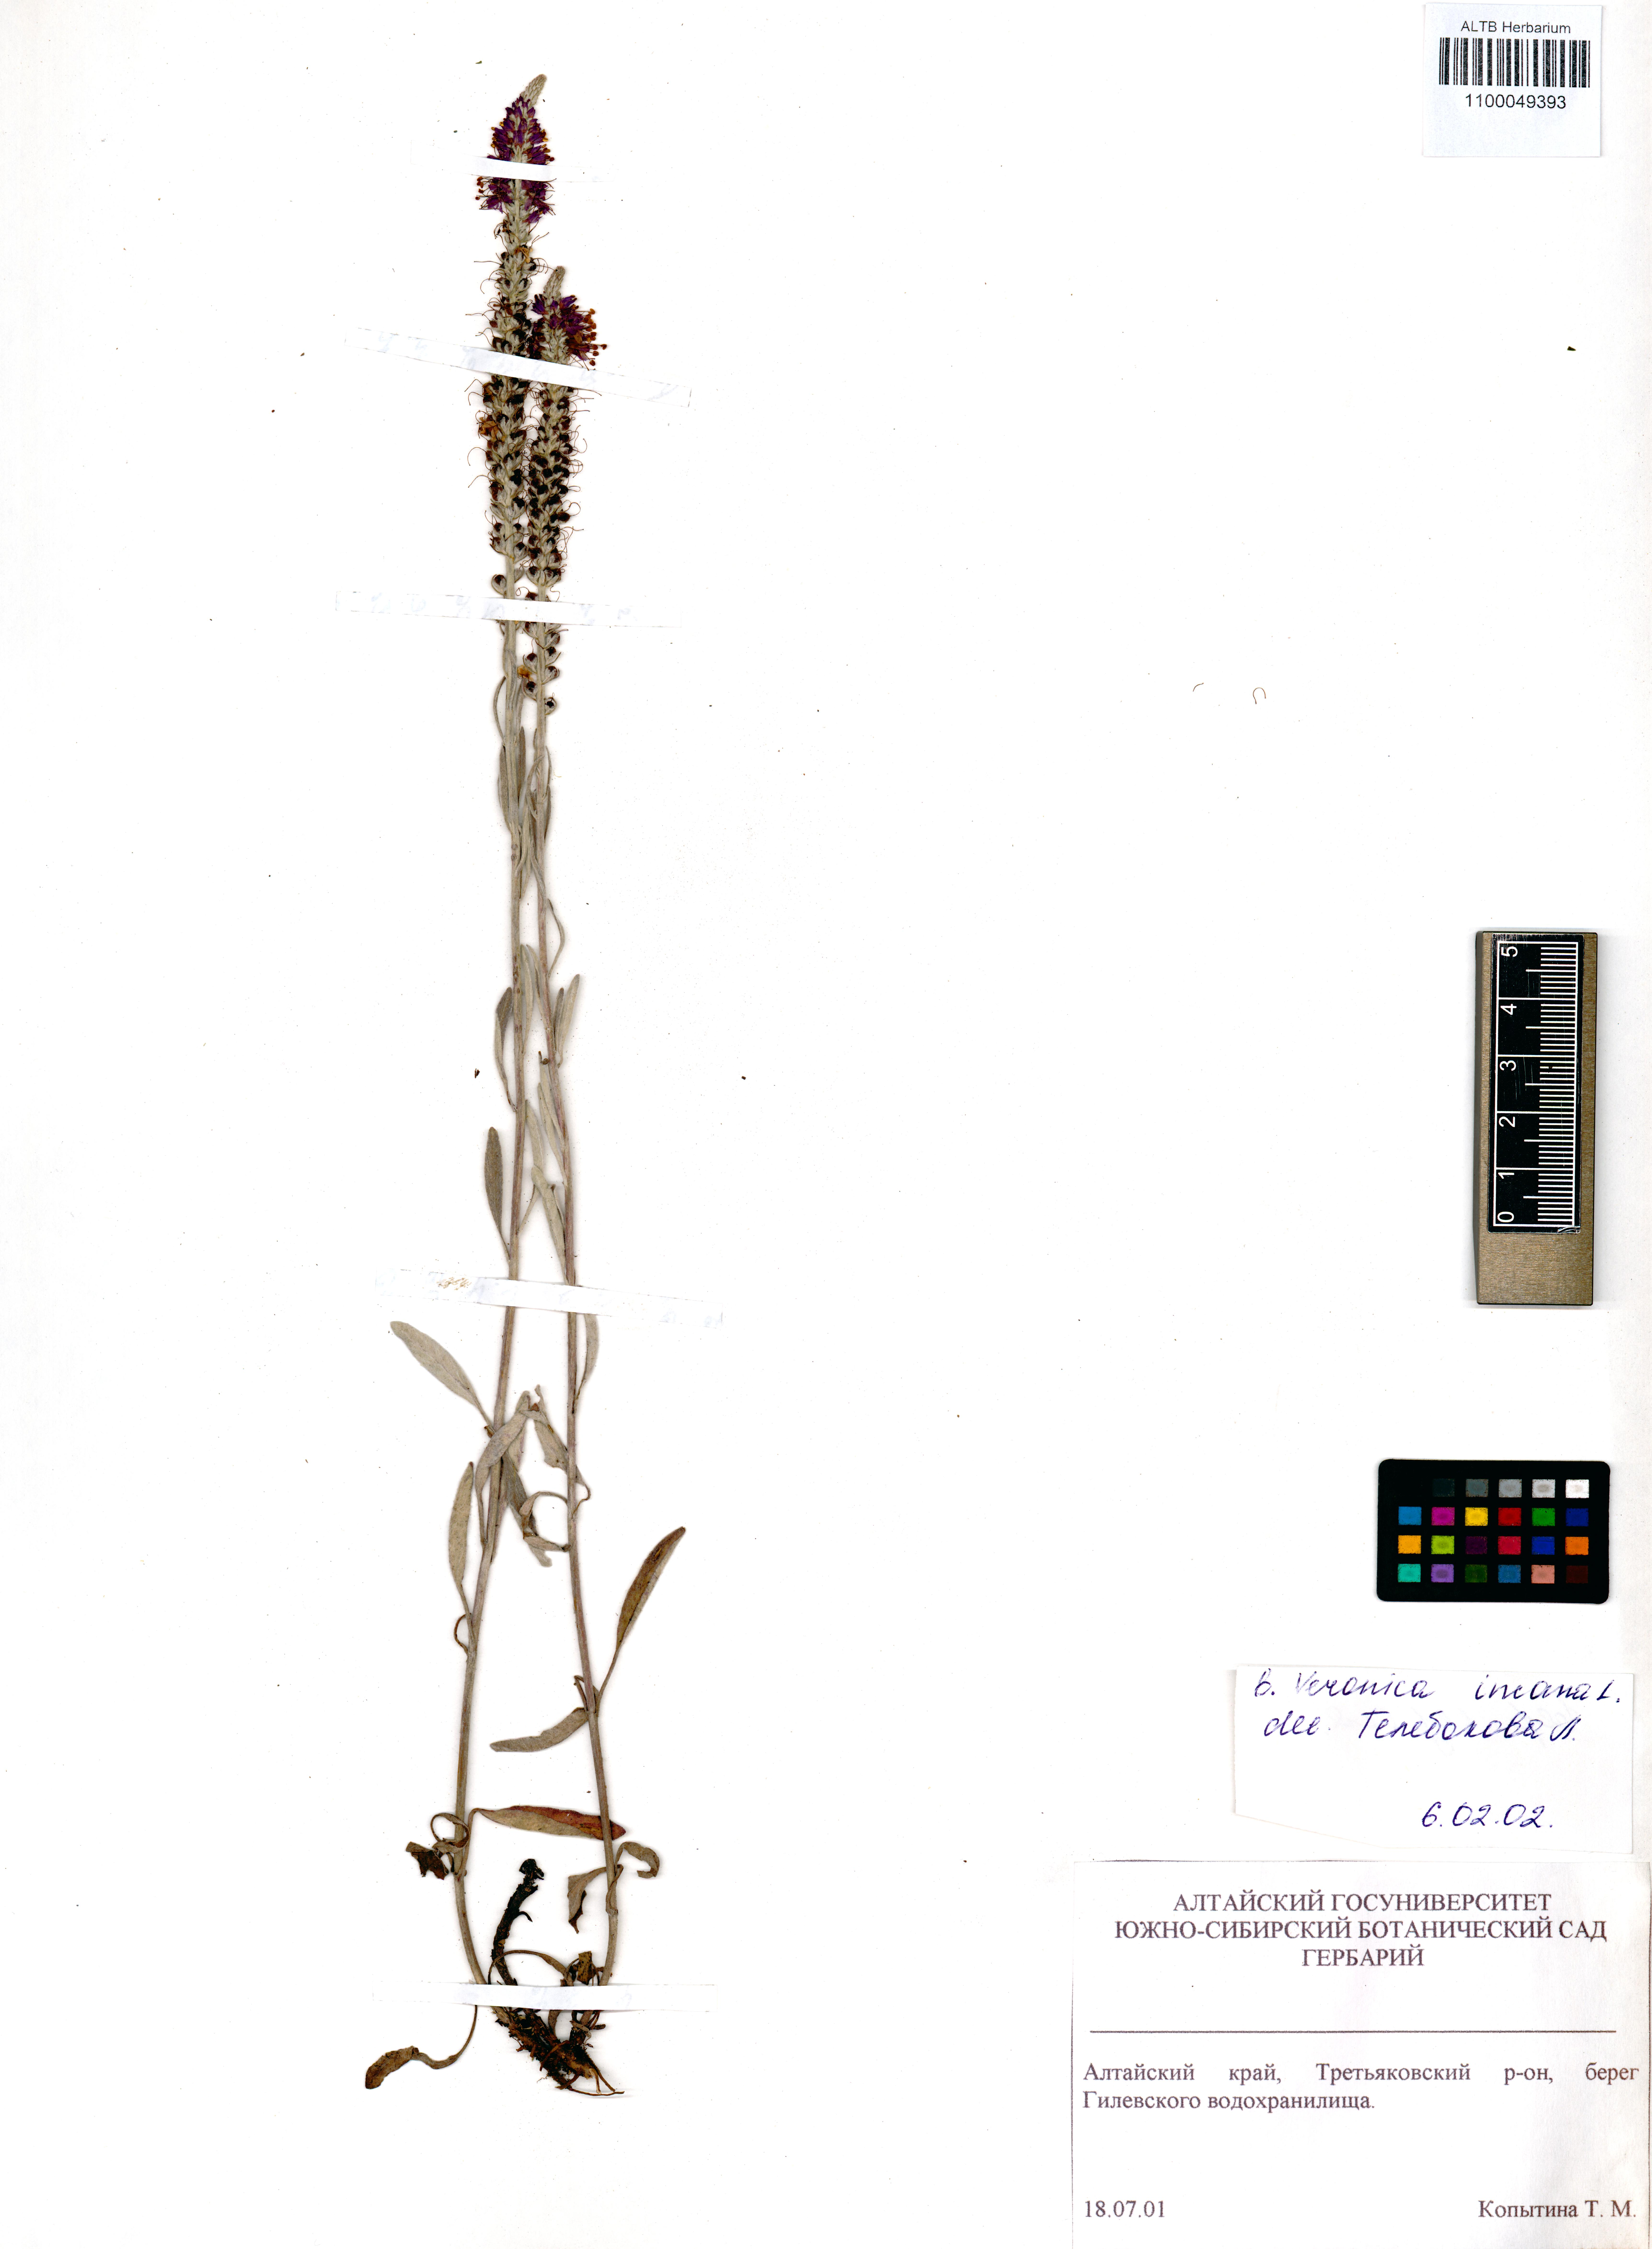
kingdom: Plantae
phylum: Tracheophyta
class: Magnoliopsida
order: Lamiales
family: Plantaginaceae
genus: Veronica
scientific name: Veronica incana
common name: Silver speedwell
